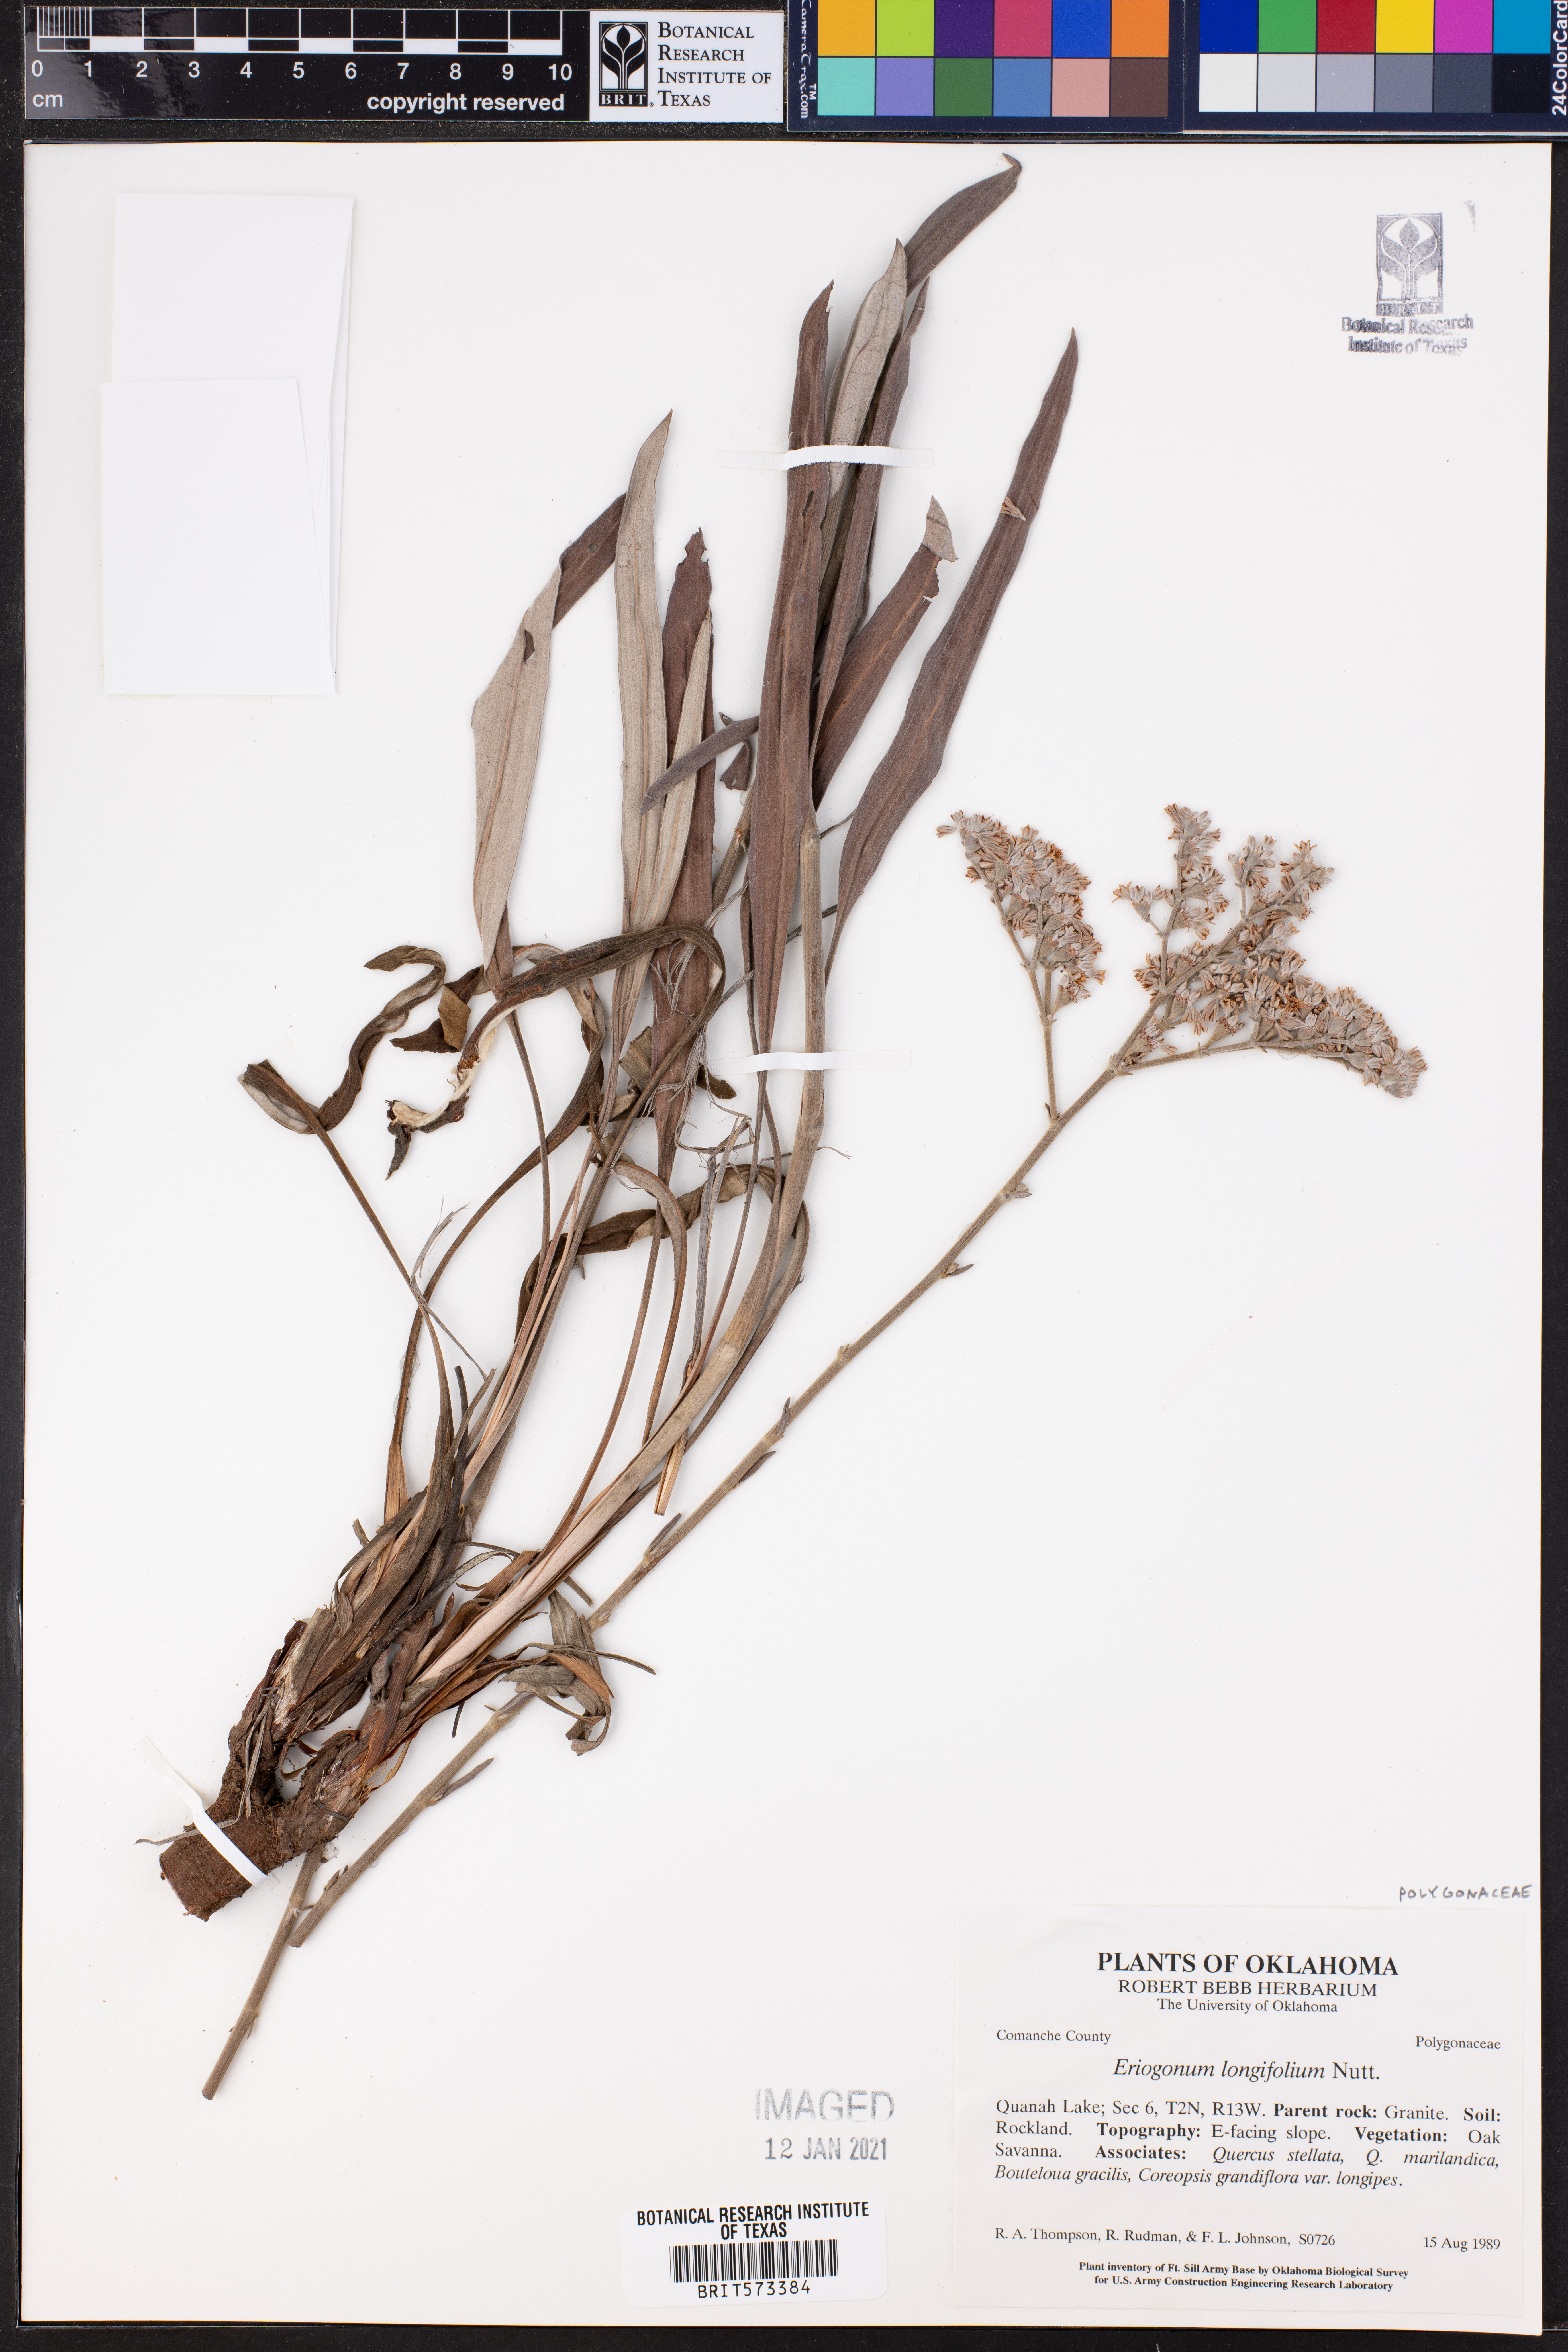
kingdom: Plantae
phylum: Tracheophyta
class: Magnoliopsida
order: Caryophyllales
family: Polygonaceae
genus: Eriogonum
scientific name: Eriogonum longifolium
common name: Longleaf wild buckwheat
